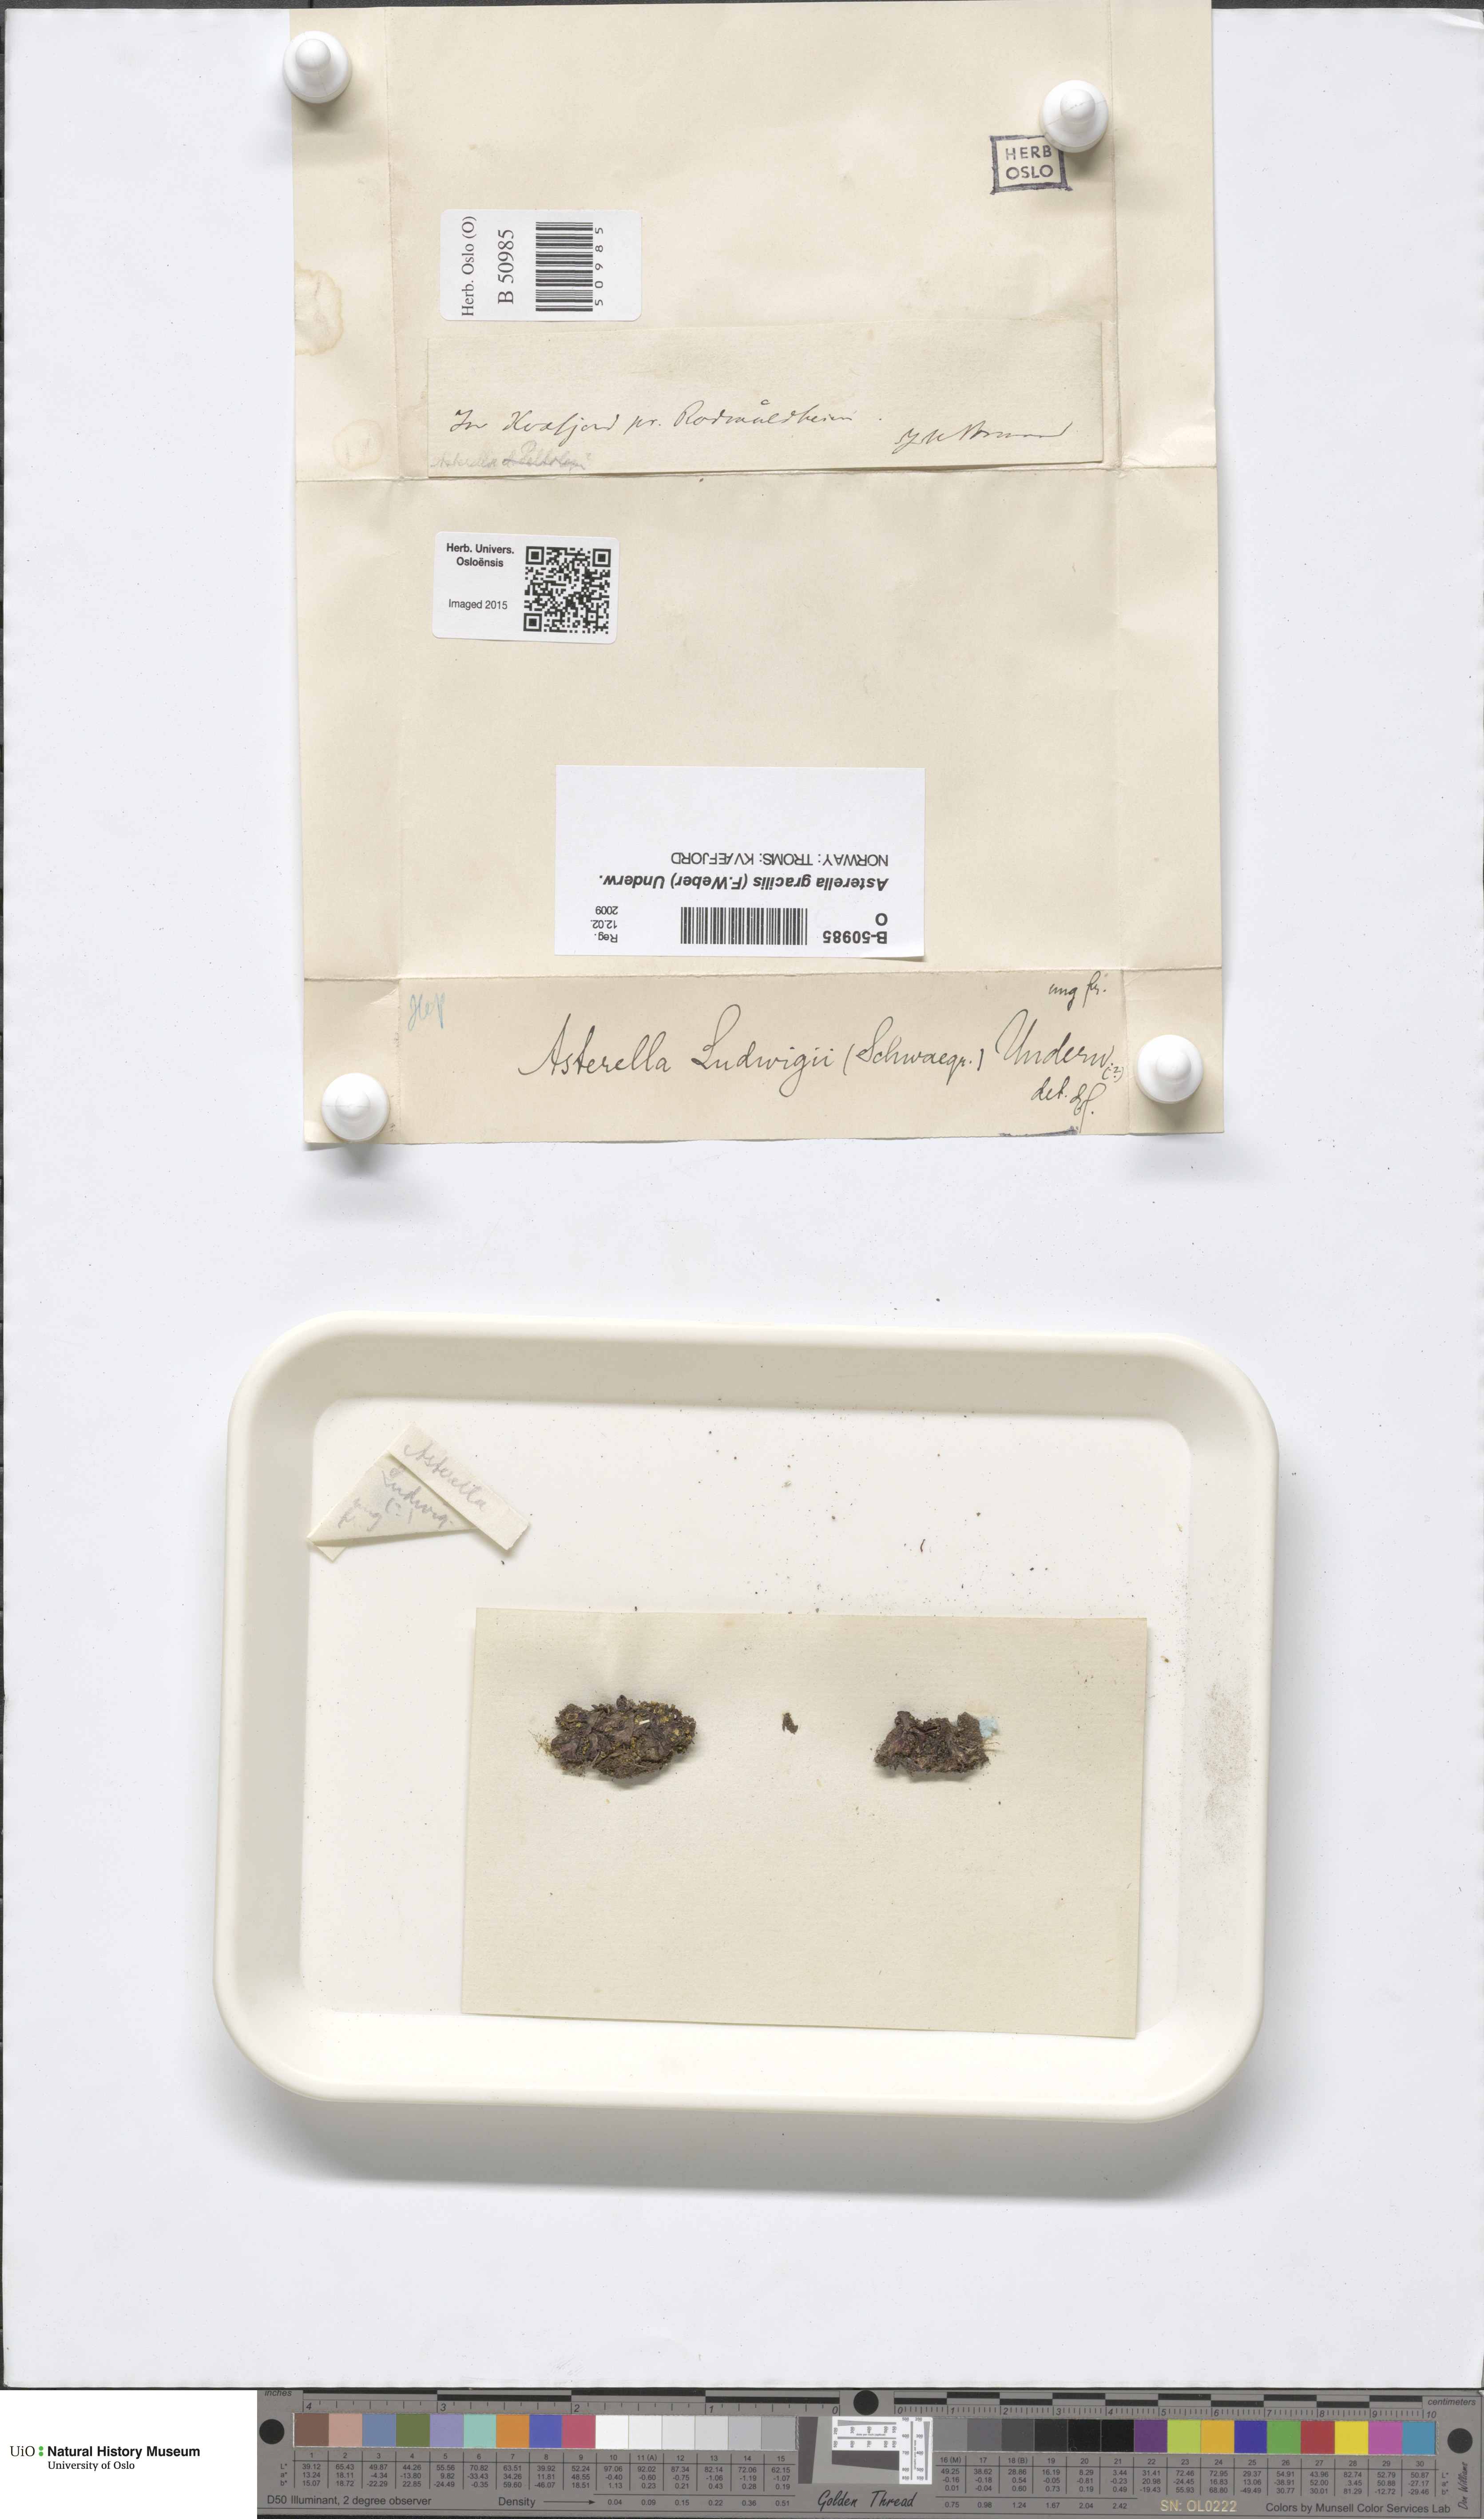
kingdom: Plantae
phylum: Marchantiophyta
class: Marchantiopsida
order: Marchantiales
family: Aytoniaceae
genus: Mannia
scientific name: Mannia gracilis
